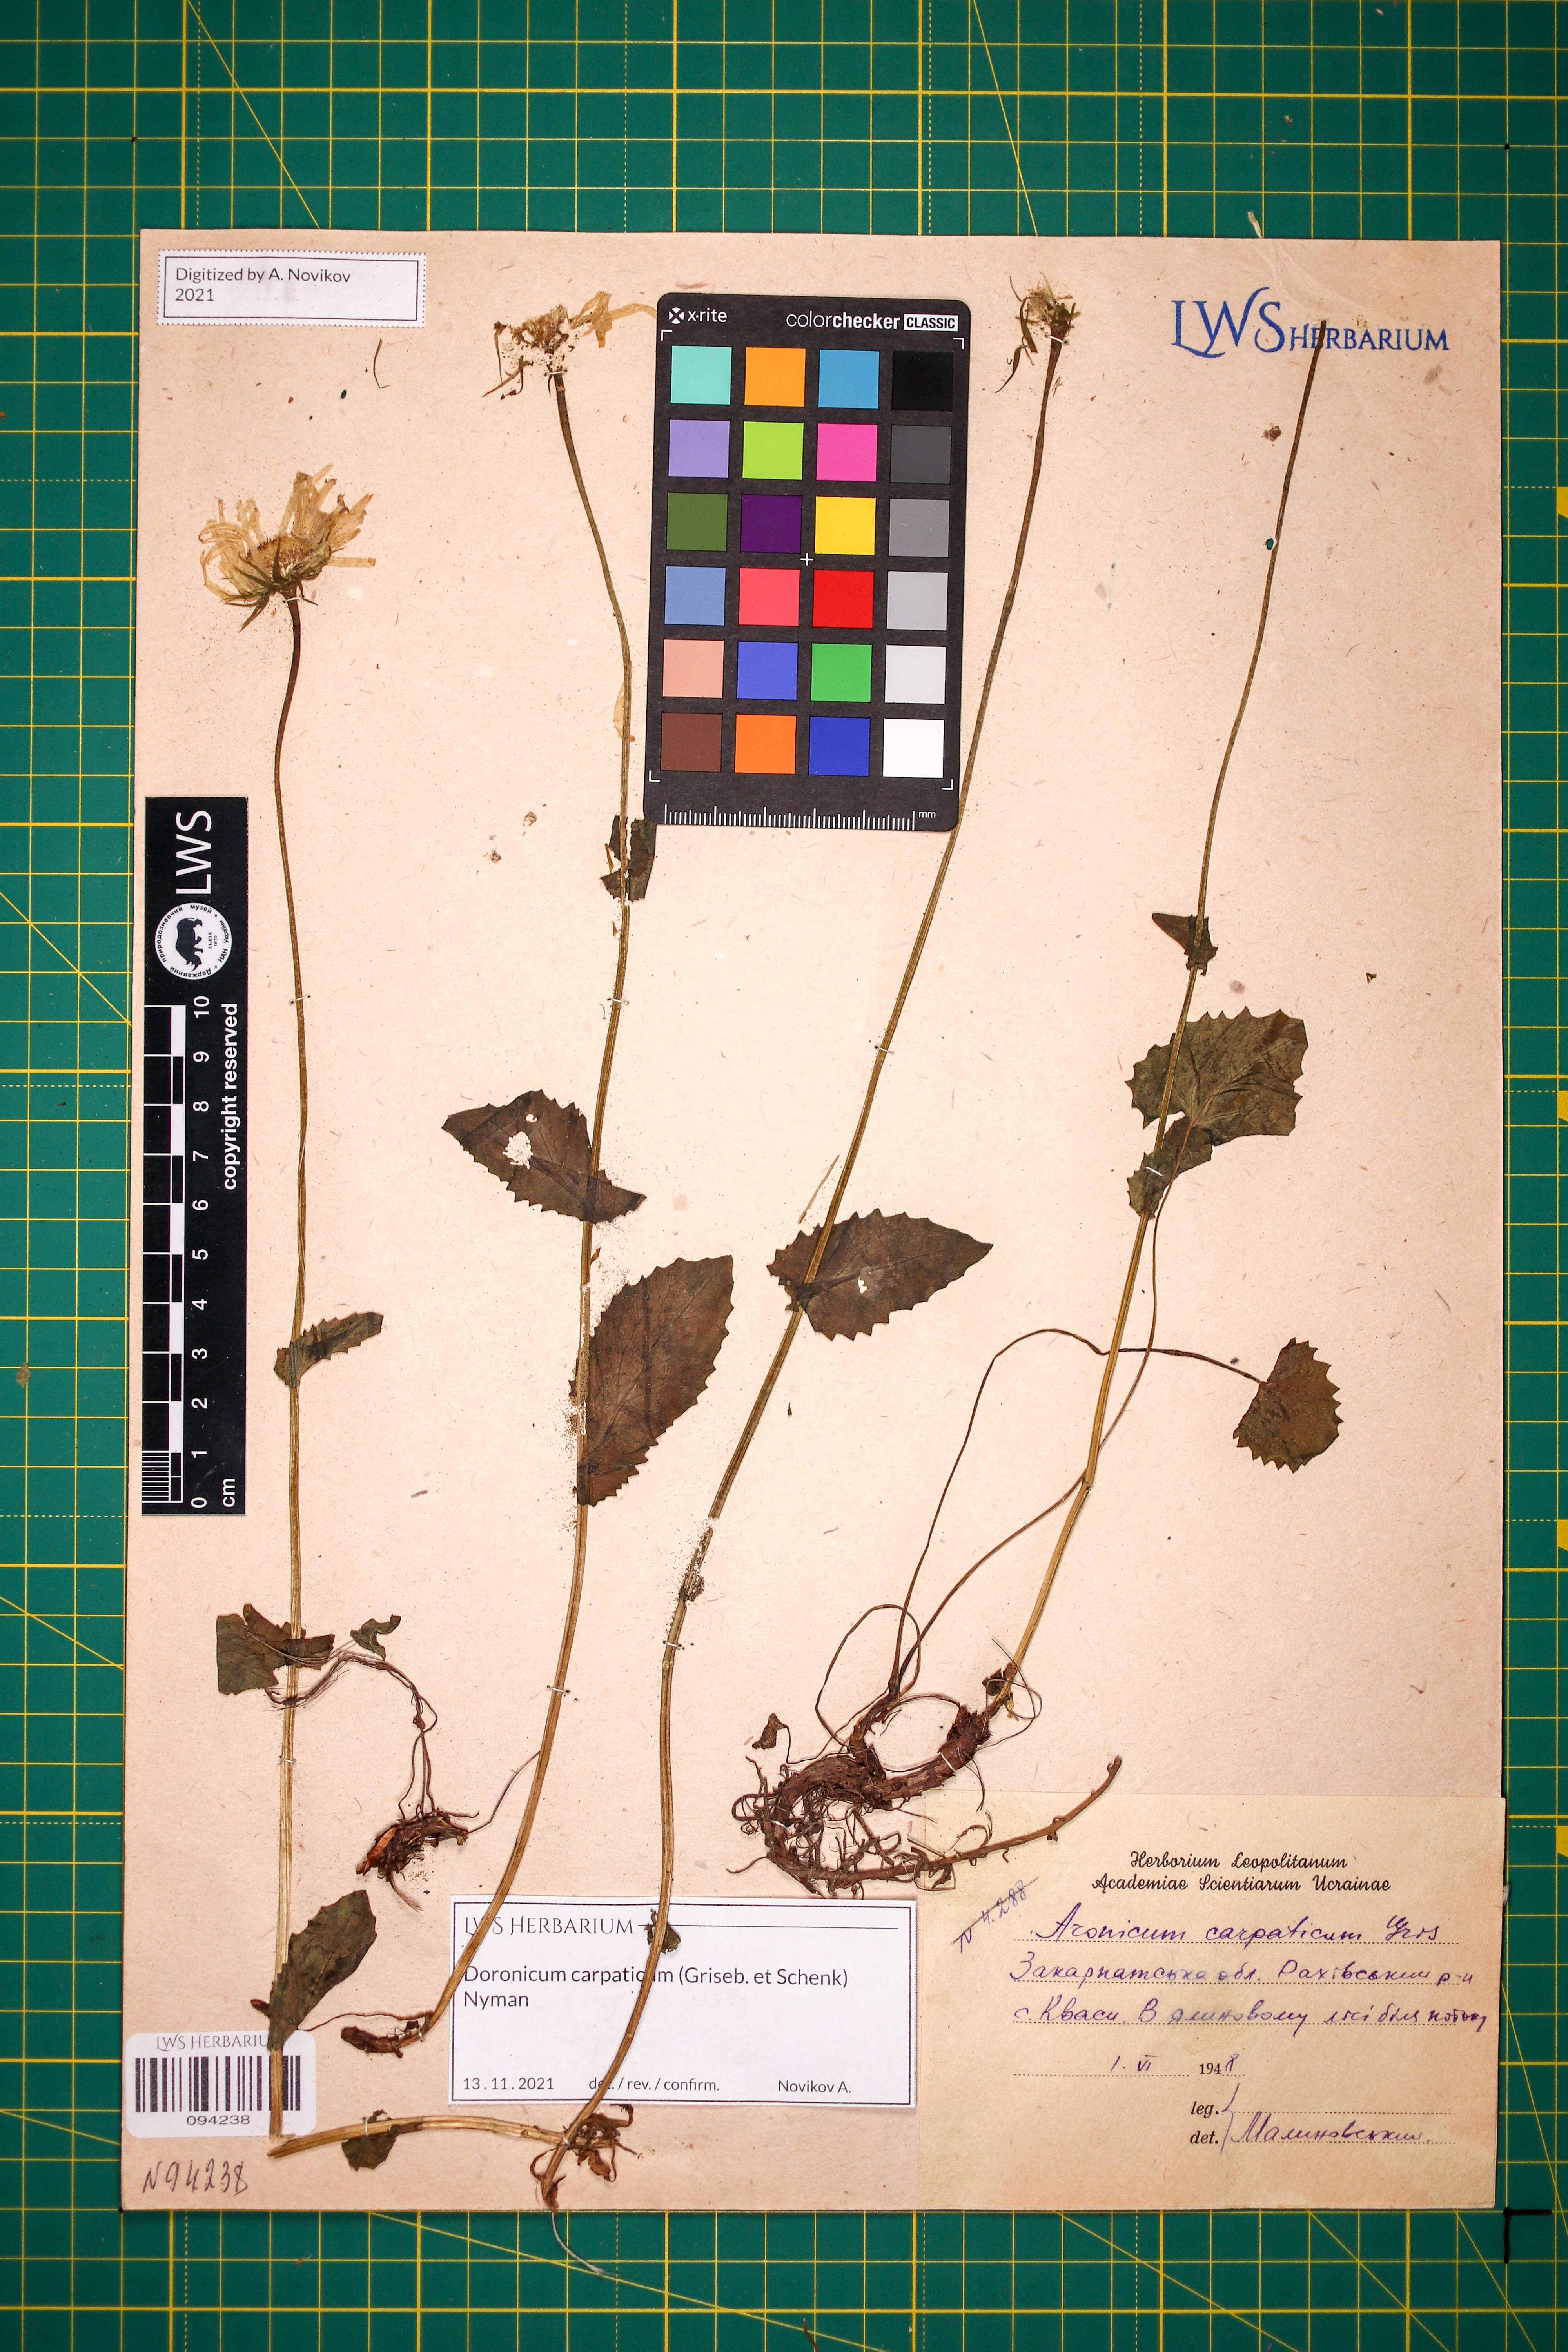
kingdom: Plantae
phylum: Tracheophyta
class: Magnoliopsida
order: Asterales
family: Asteraceae
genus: Doronicum
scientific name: Doronicum carpaticum
